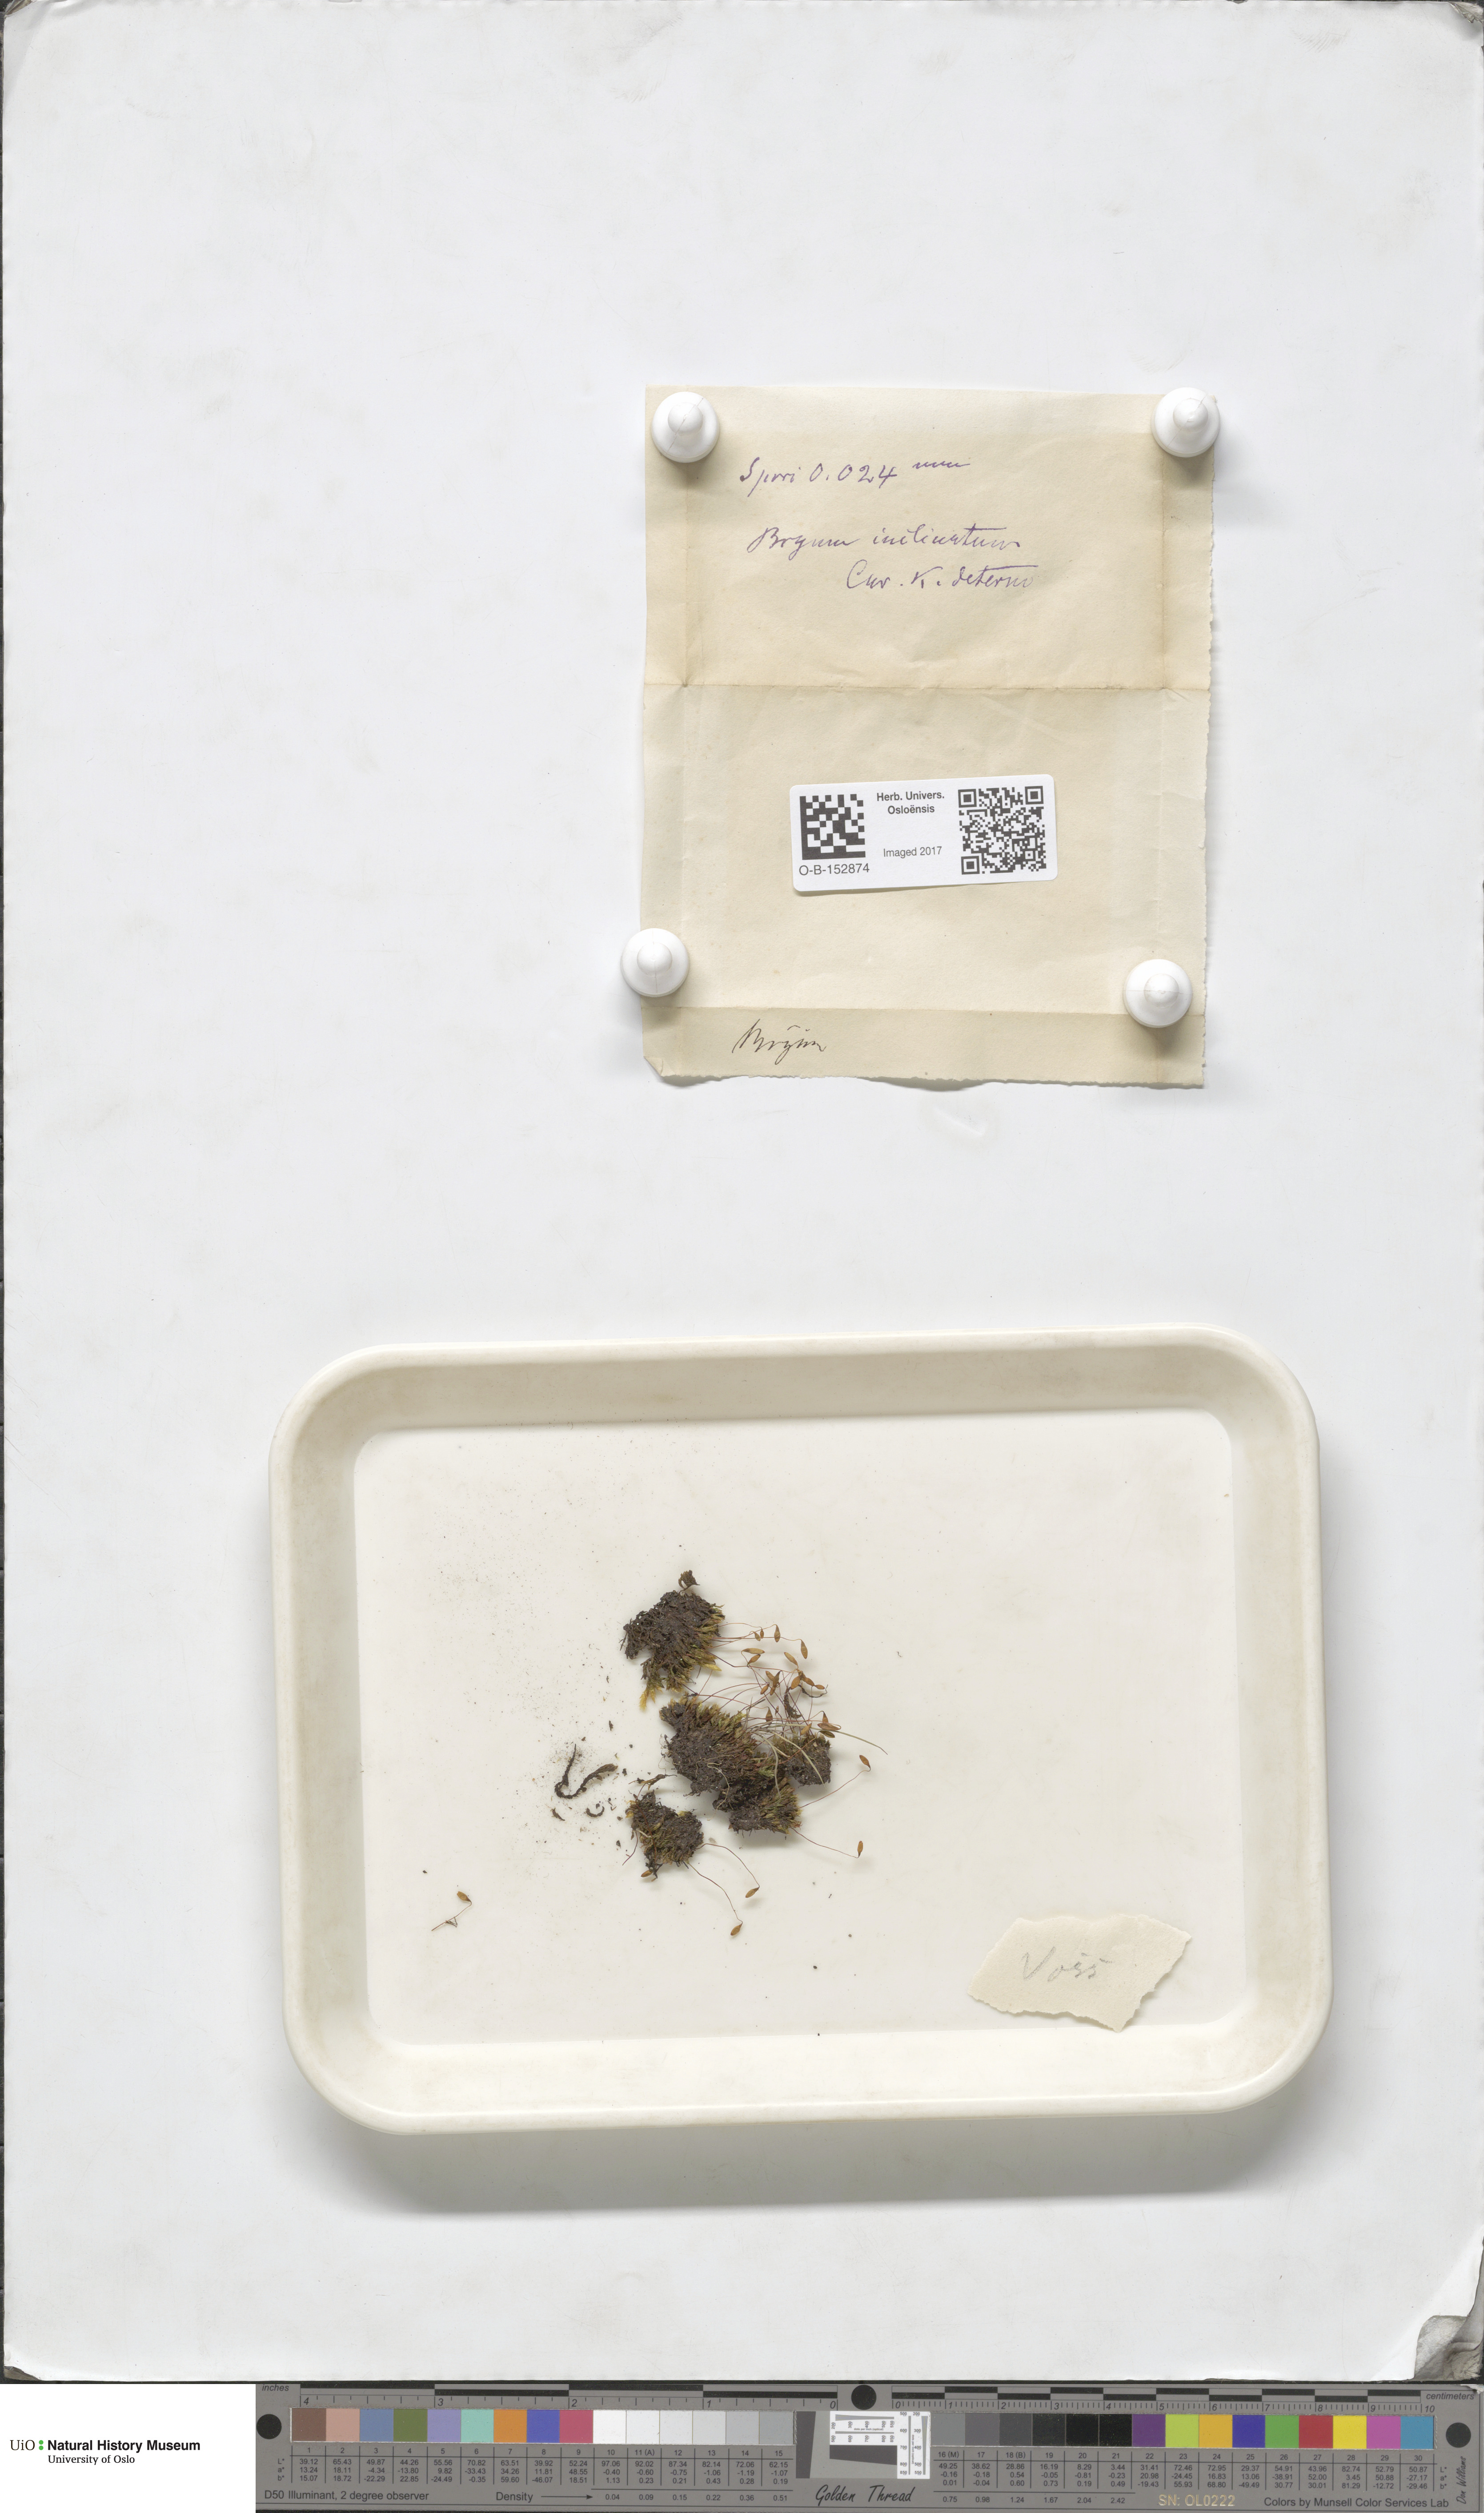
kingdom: Plantae
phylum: Bryophyta
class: Bryopsida
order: Bryales
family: Bryaceae
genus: Ptychostomum
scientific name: Ptychostomum inclinatum
